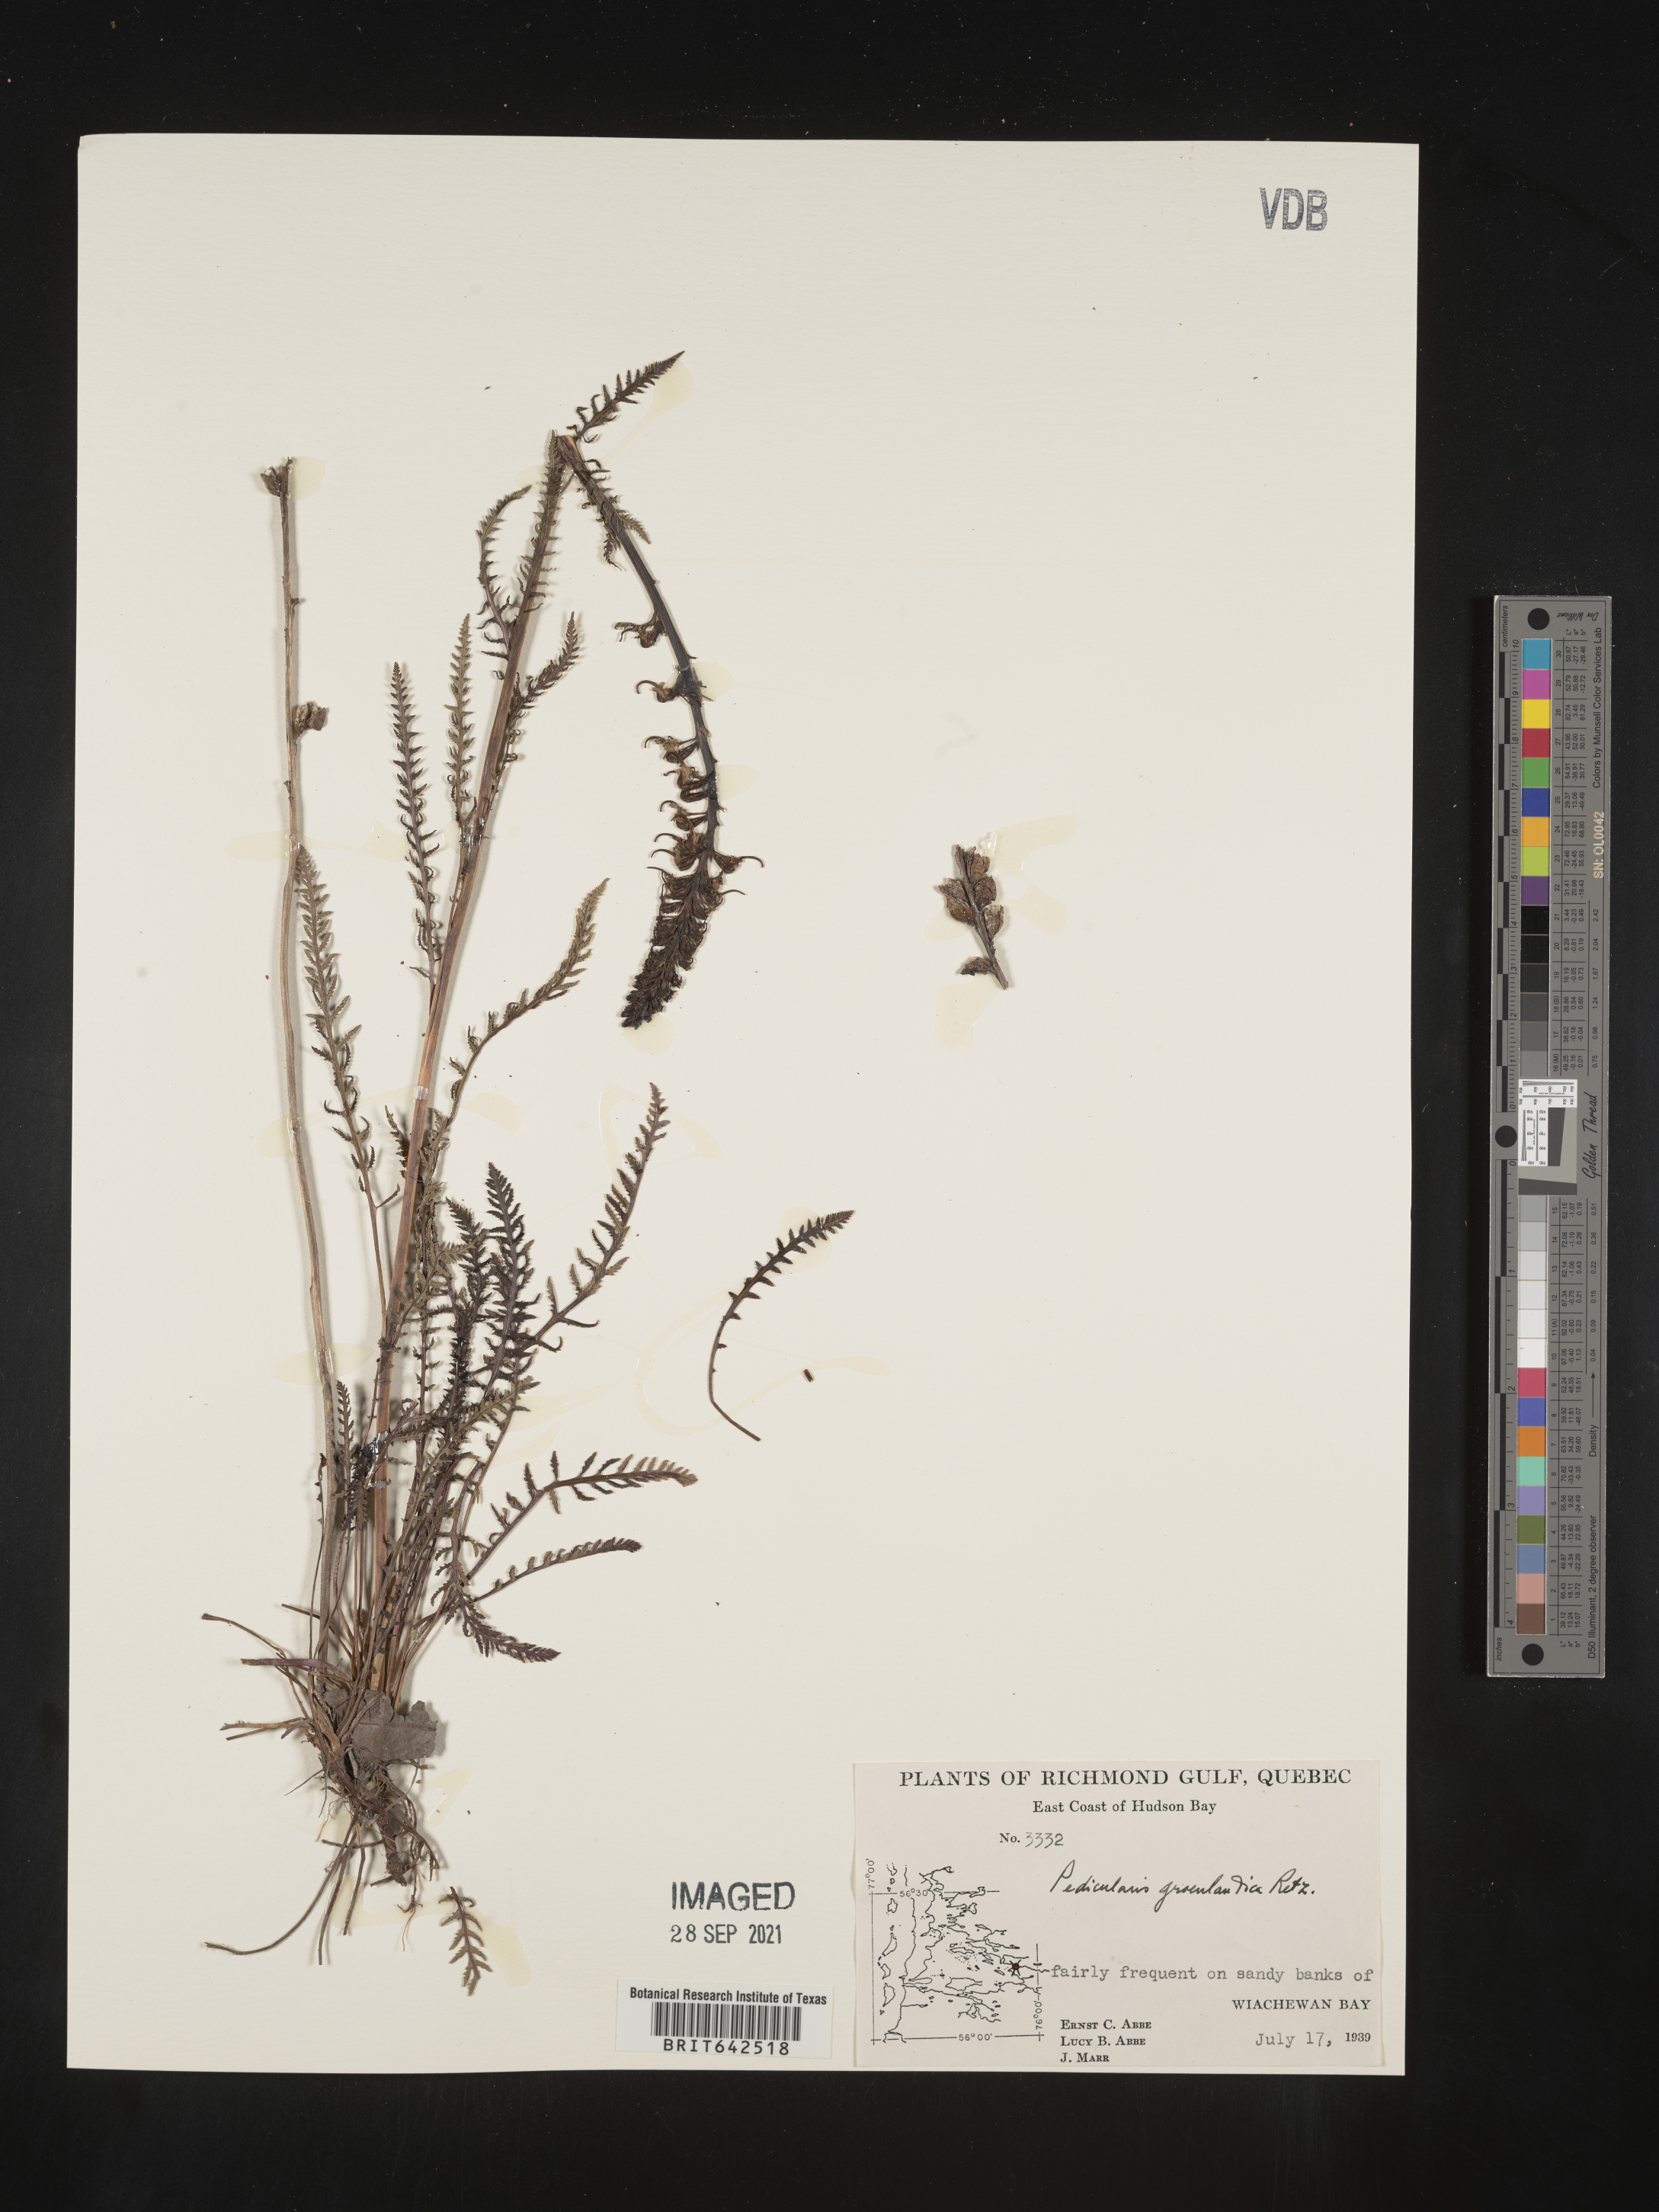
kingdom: Plantae
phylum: Tracheophyta
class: Magnoliopsida
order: Lamiales
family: Orobanchaceae
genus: Pedicularis
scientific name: Pedicularis
